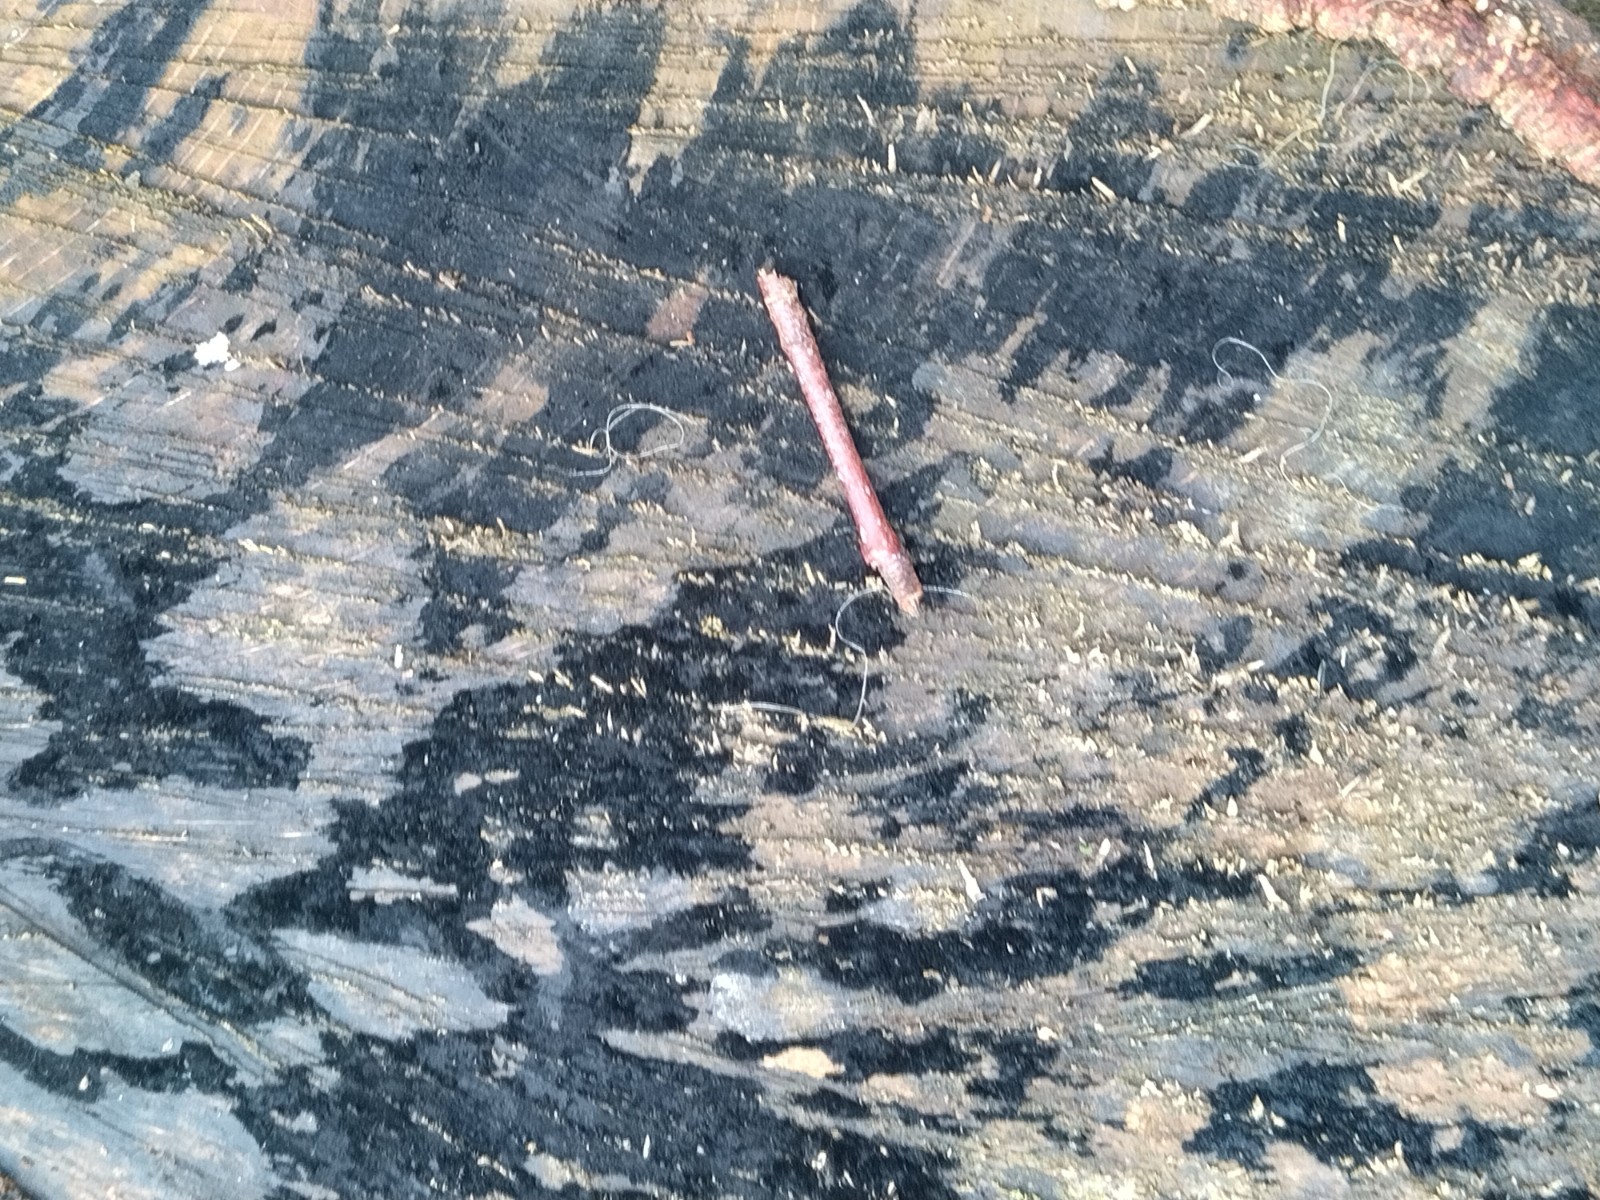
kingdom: Fungi
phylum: Ascomycota
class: Leotiomycetes
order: Helotiales
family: Helotiaceae
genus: Bispora
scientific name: Bispora pallescens
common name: måtte-snitskive
